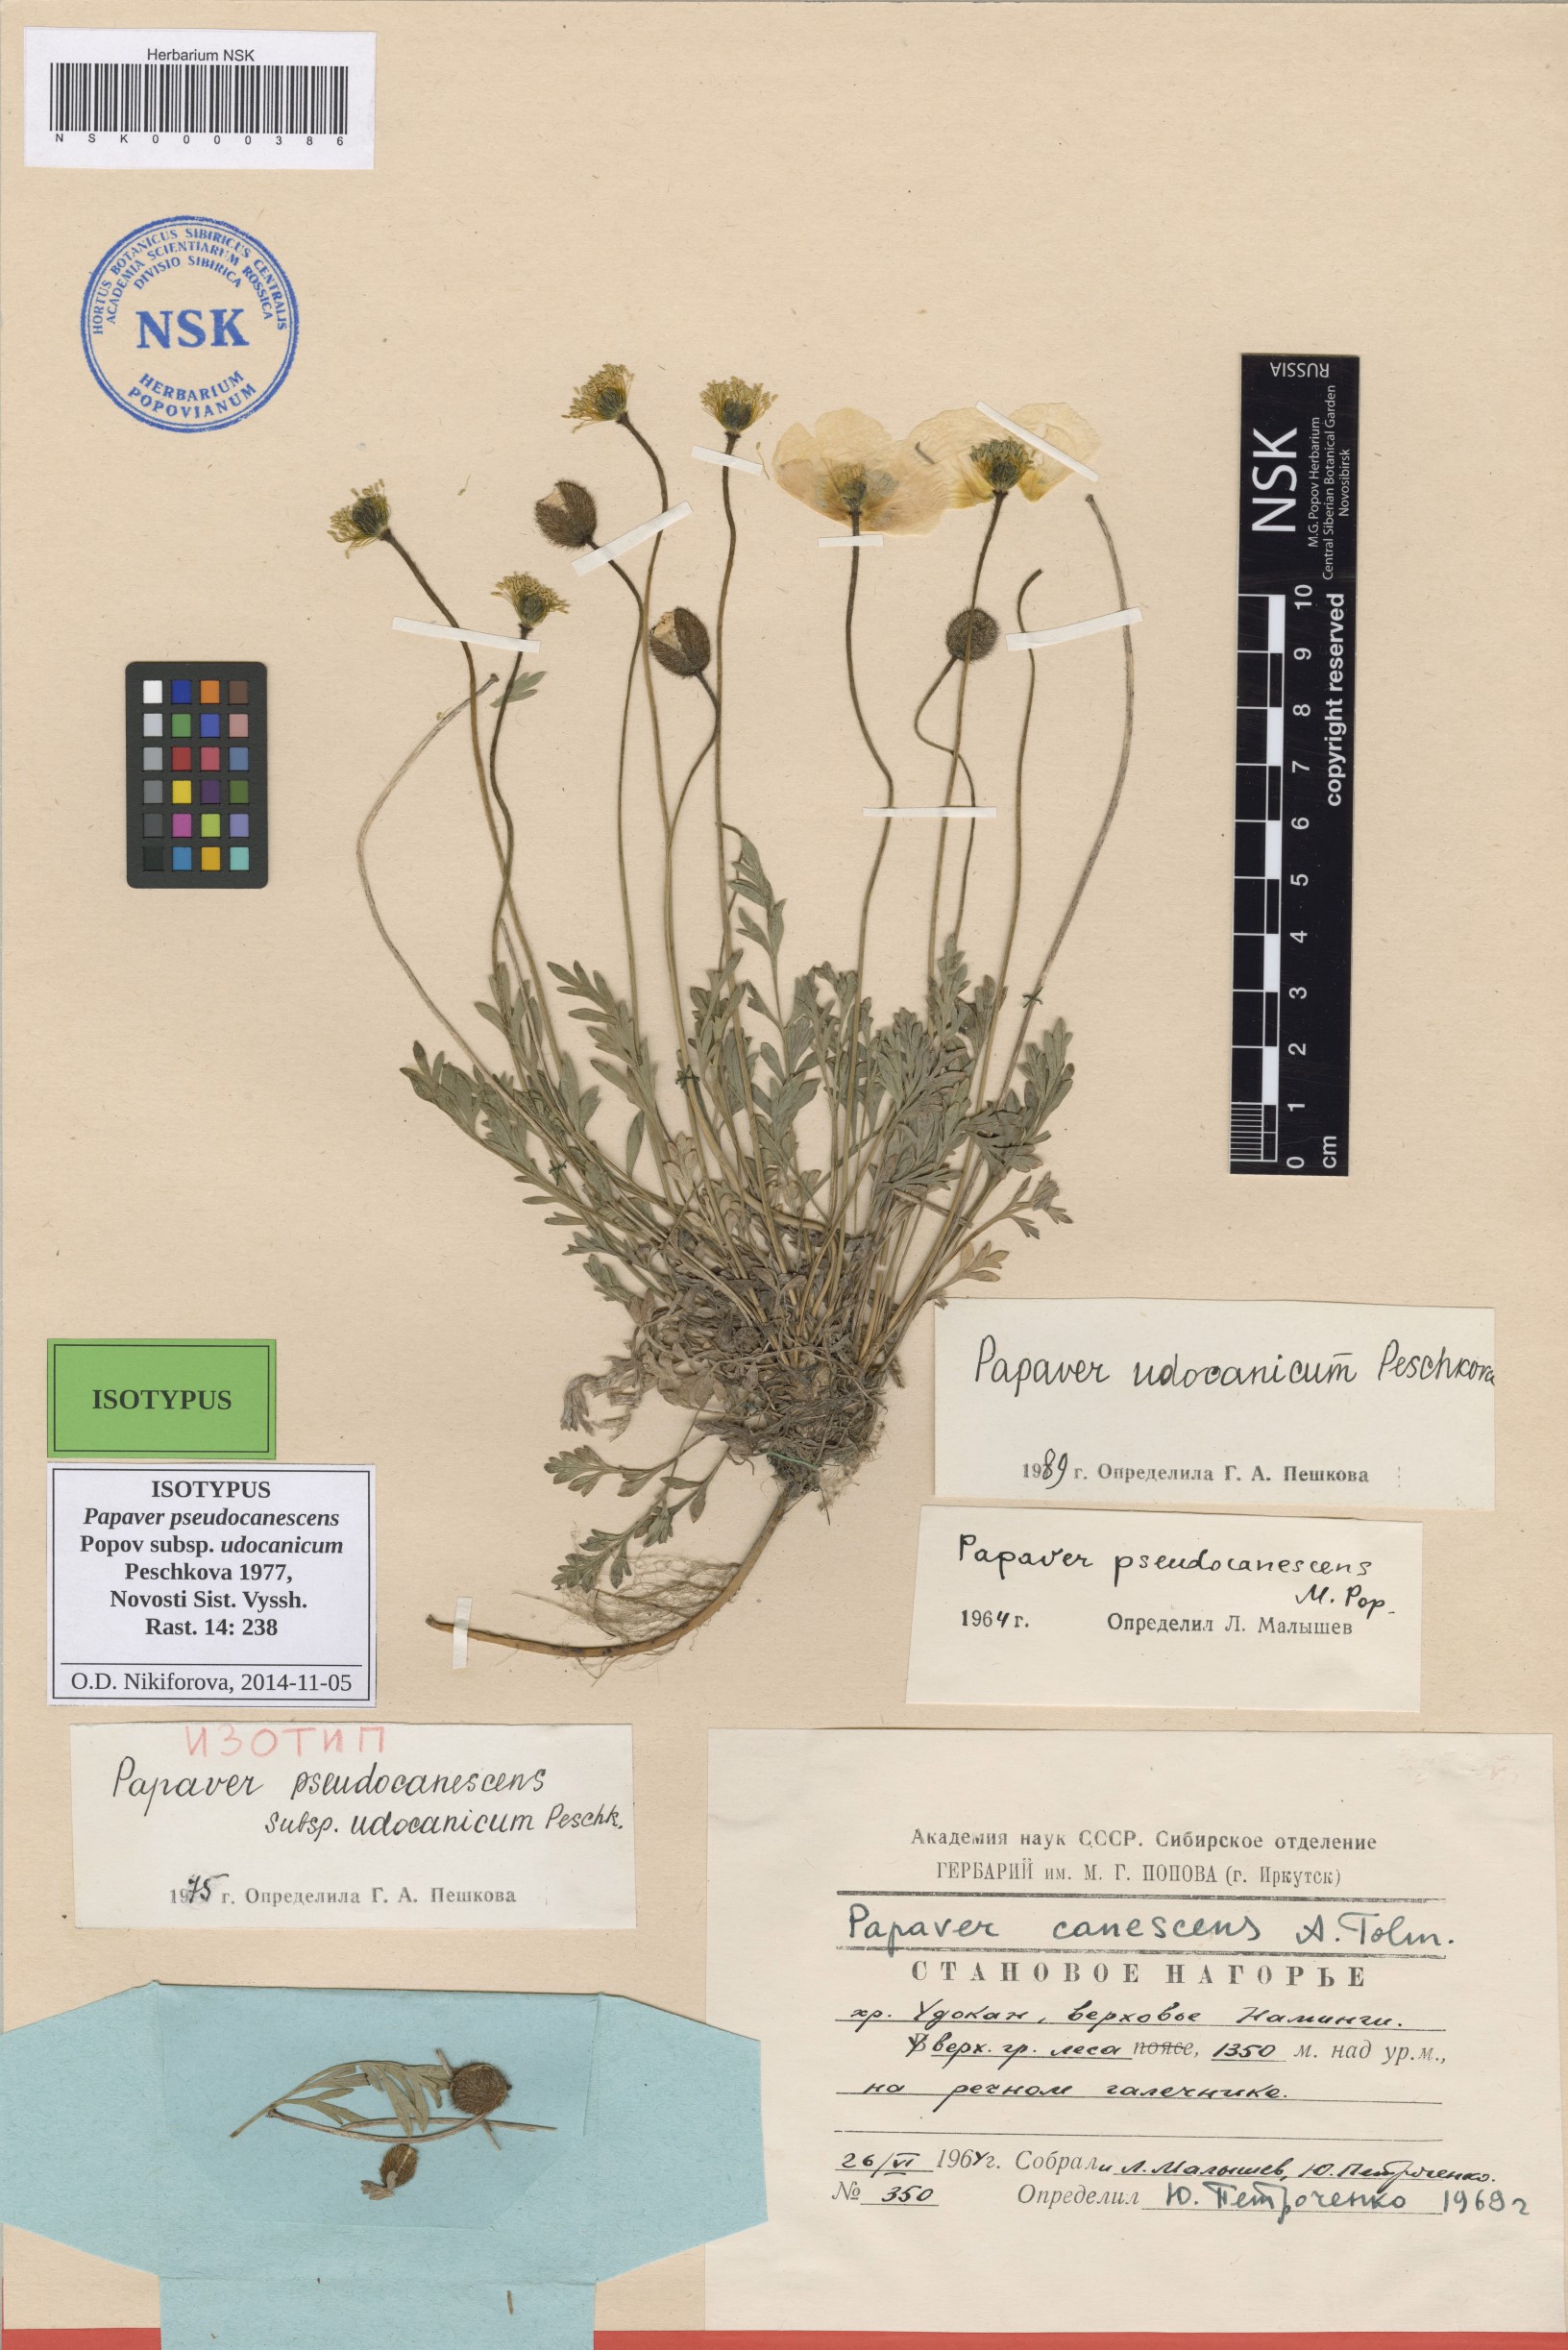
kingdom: Plantae
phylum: Tracheophyta
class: Magnoliopsida
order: Ranunculales
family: Papaveraceae
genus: Papaver
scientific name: Papaver udocanicum
